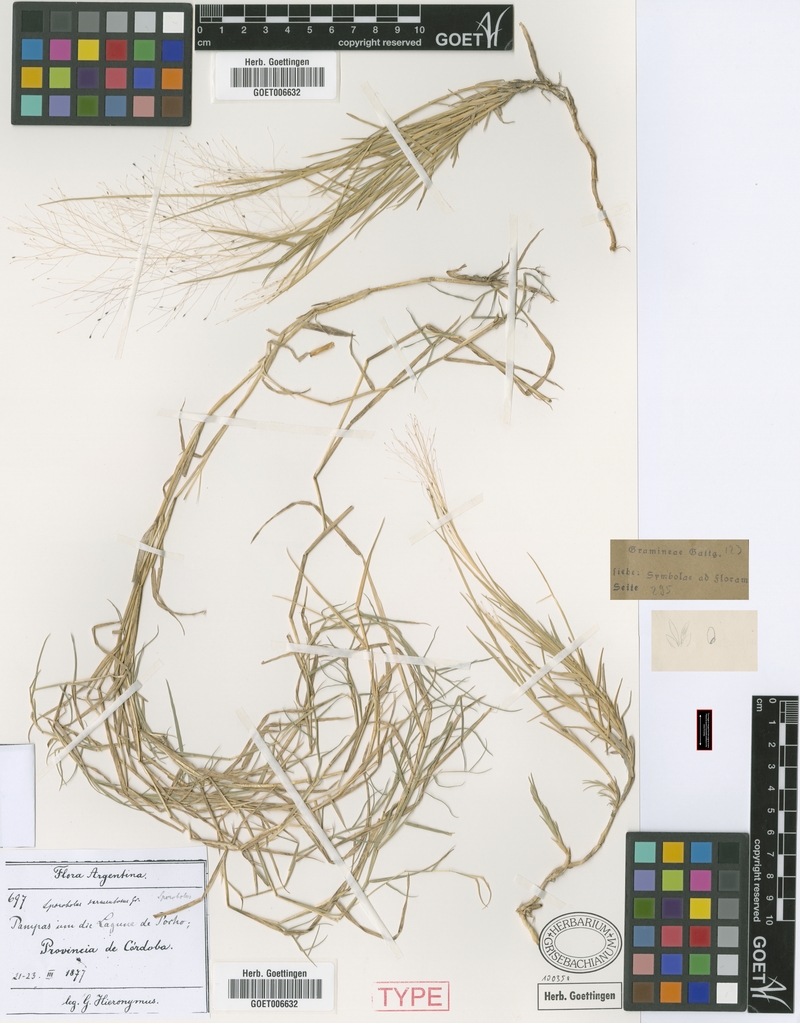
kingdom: Plantae
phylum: Tracheophyta
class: Liliopsida
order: Poales
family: Poaceae
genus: Muhlenbergia
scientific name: Muhlenbergia asperifolia
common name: Alkali muhly
